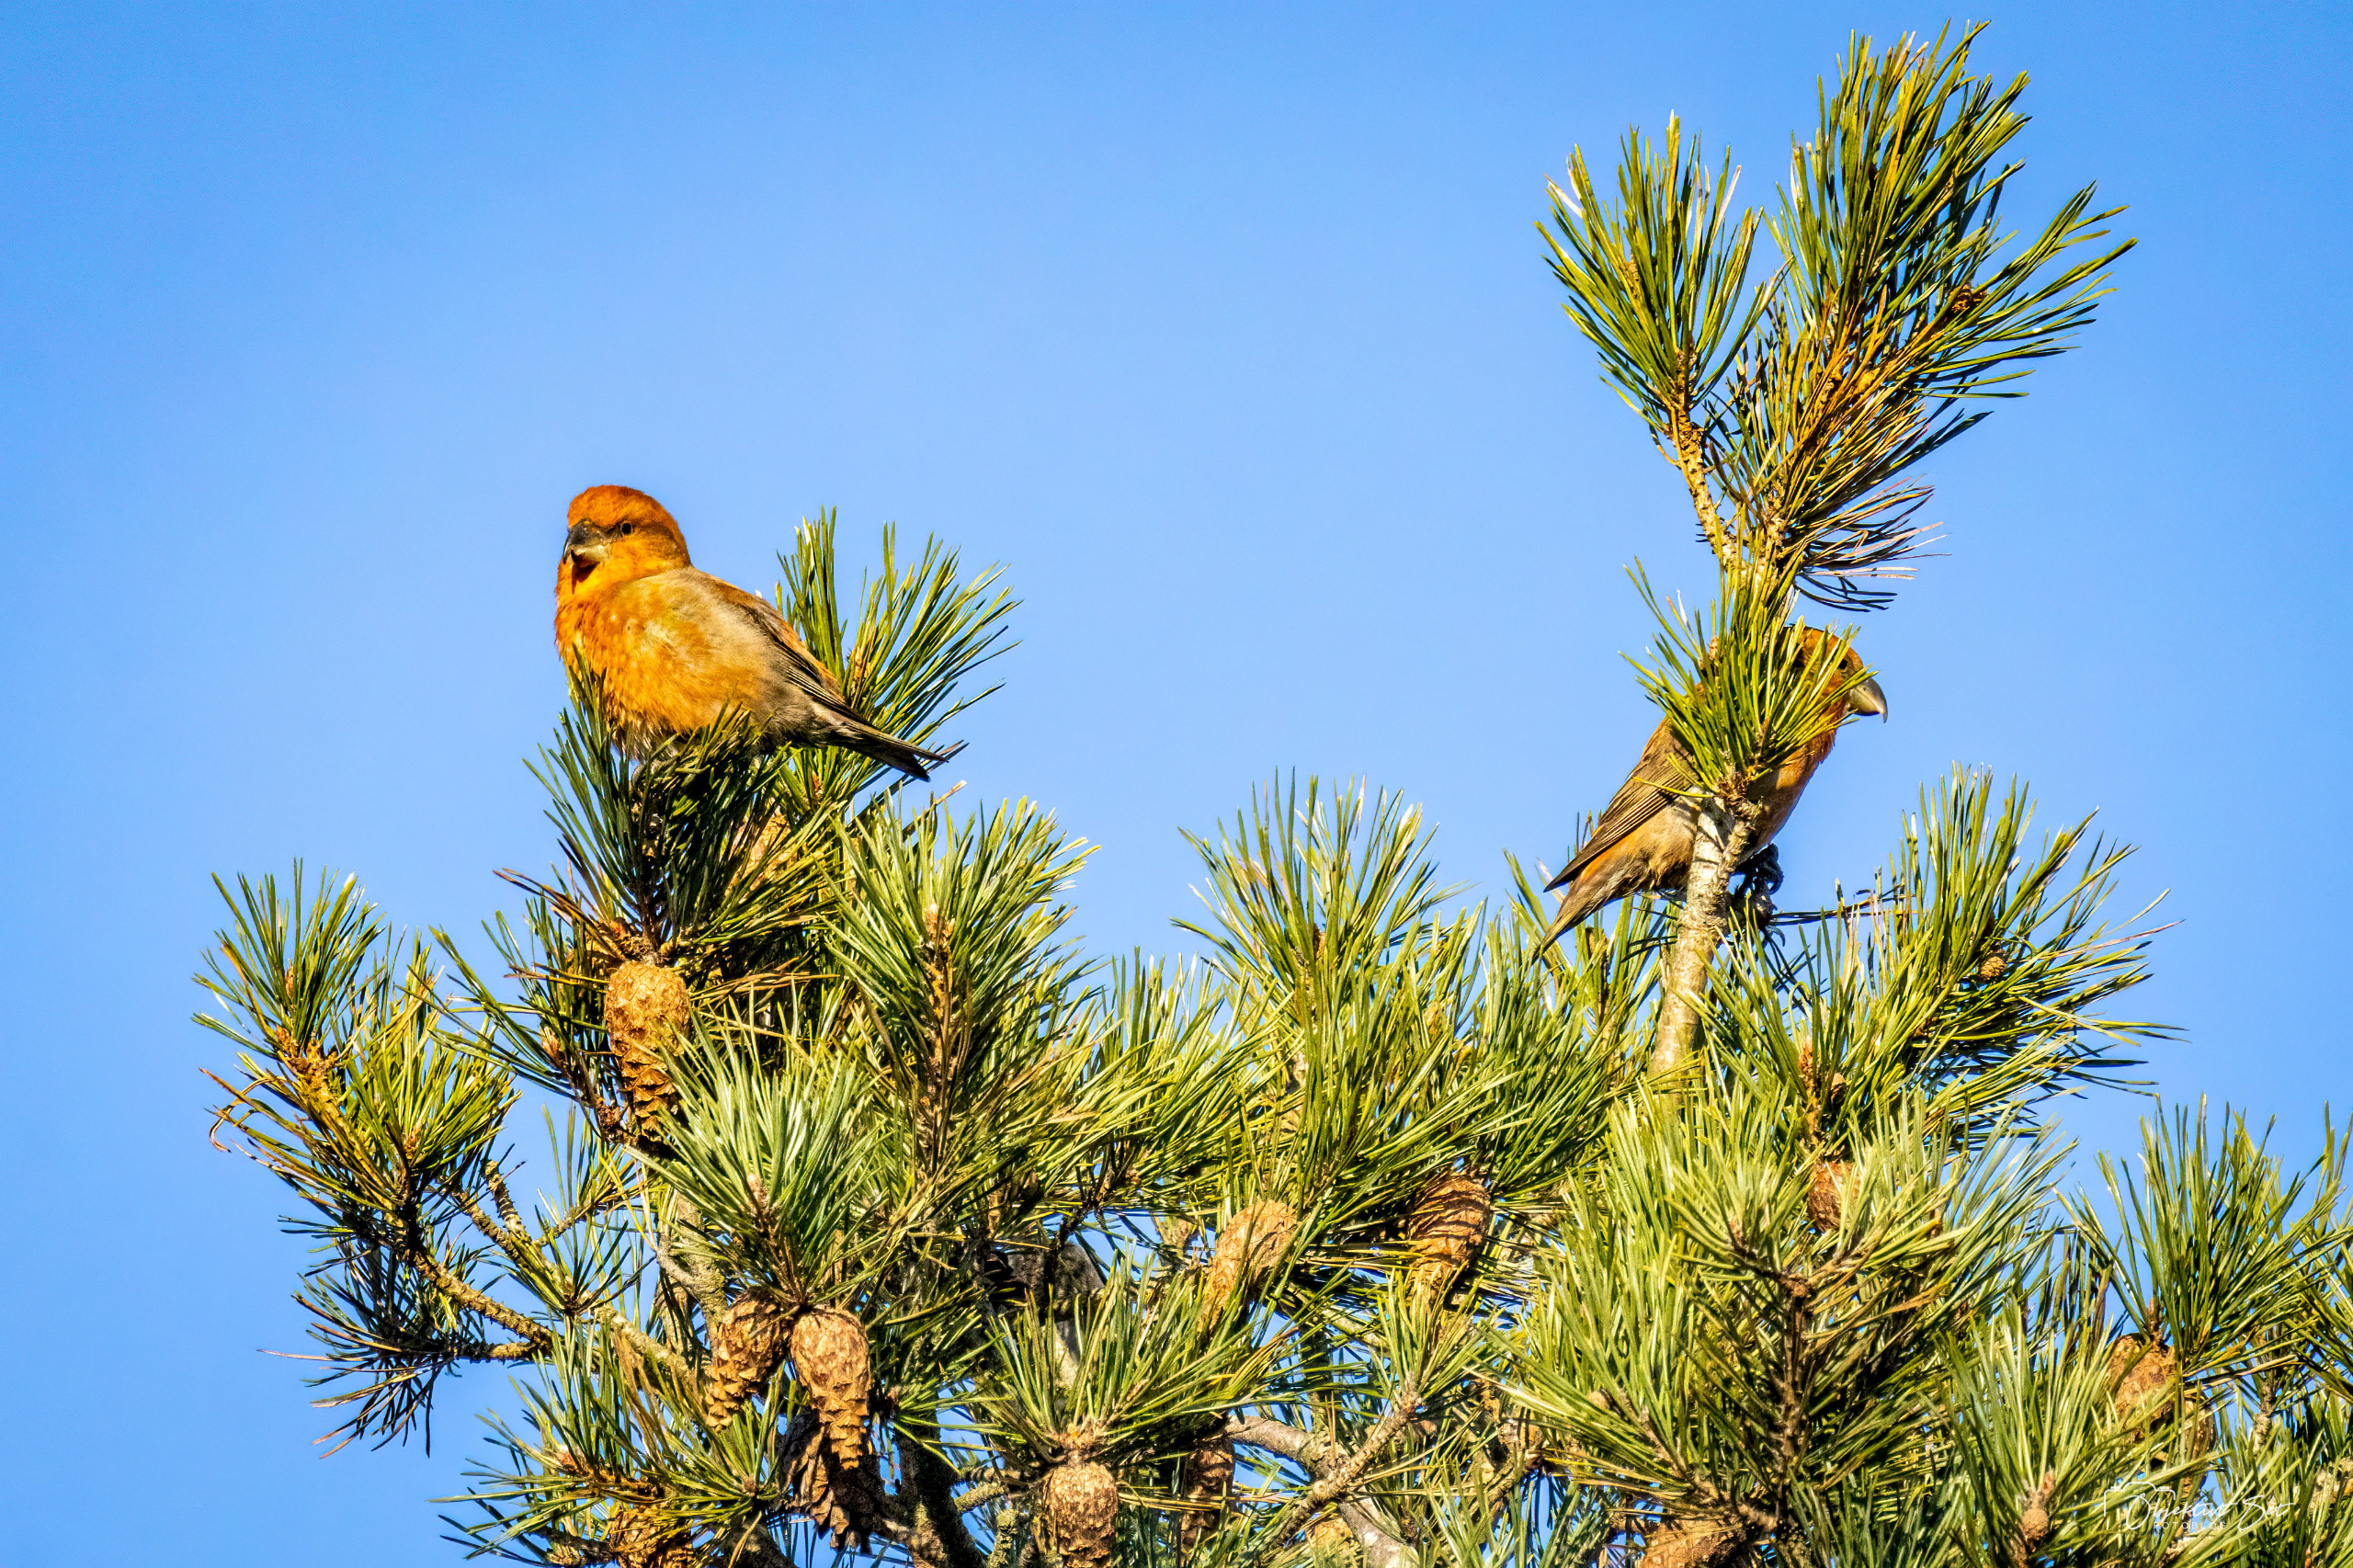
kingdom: Animalia
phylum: Chordata
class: Aves
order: Passeriformes
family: Fringillidae
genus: Loxia
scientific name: Loxia curvirostra
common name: Lille korsnæb
